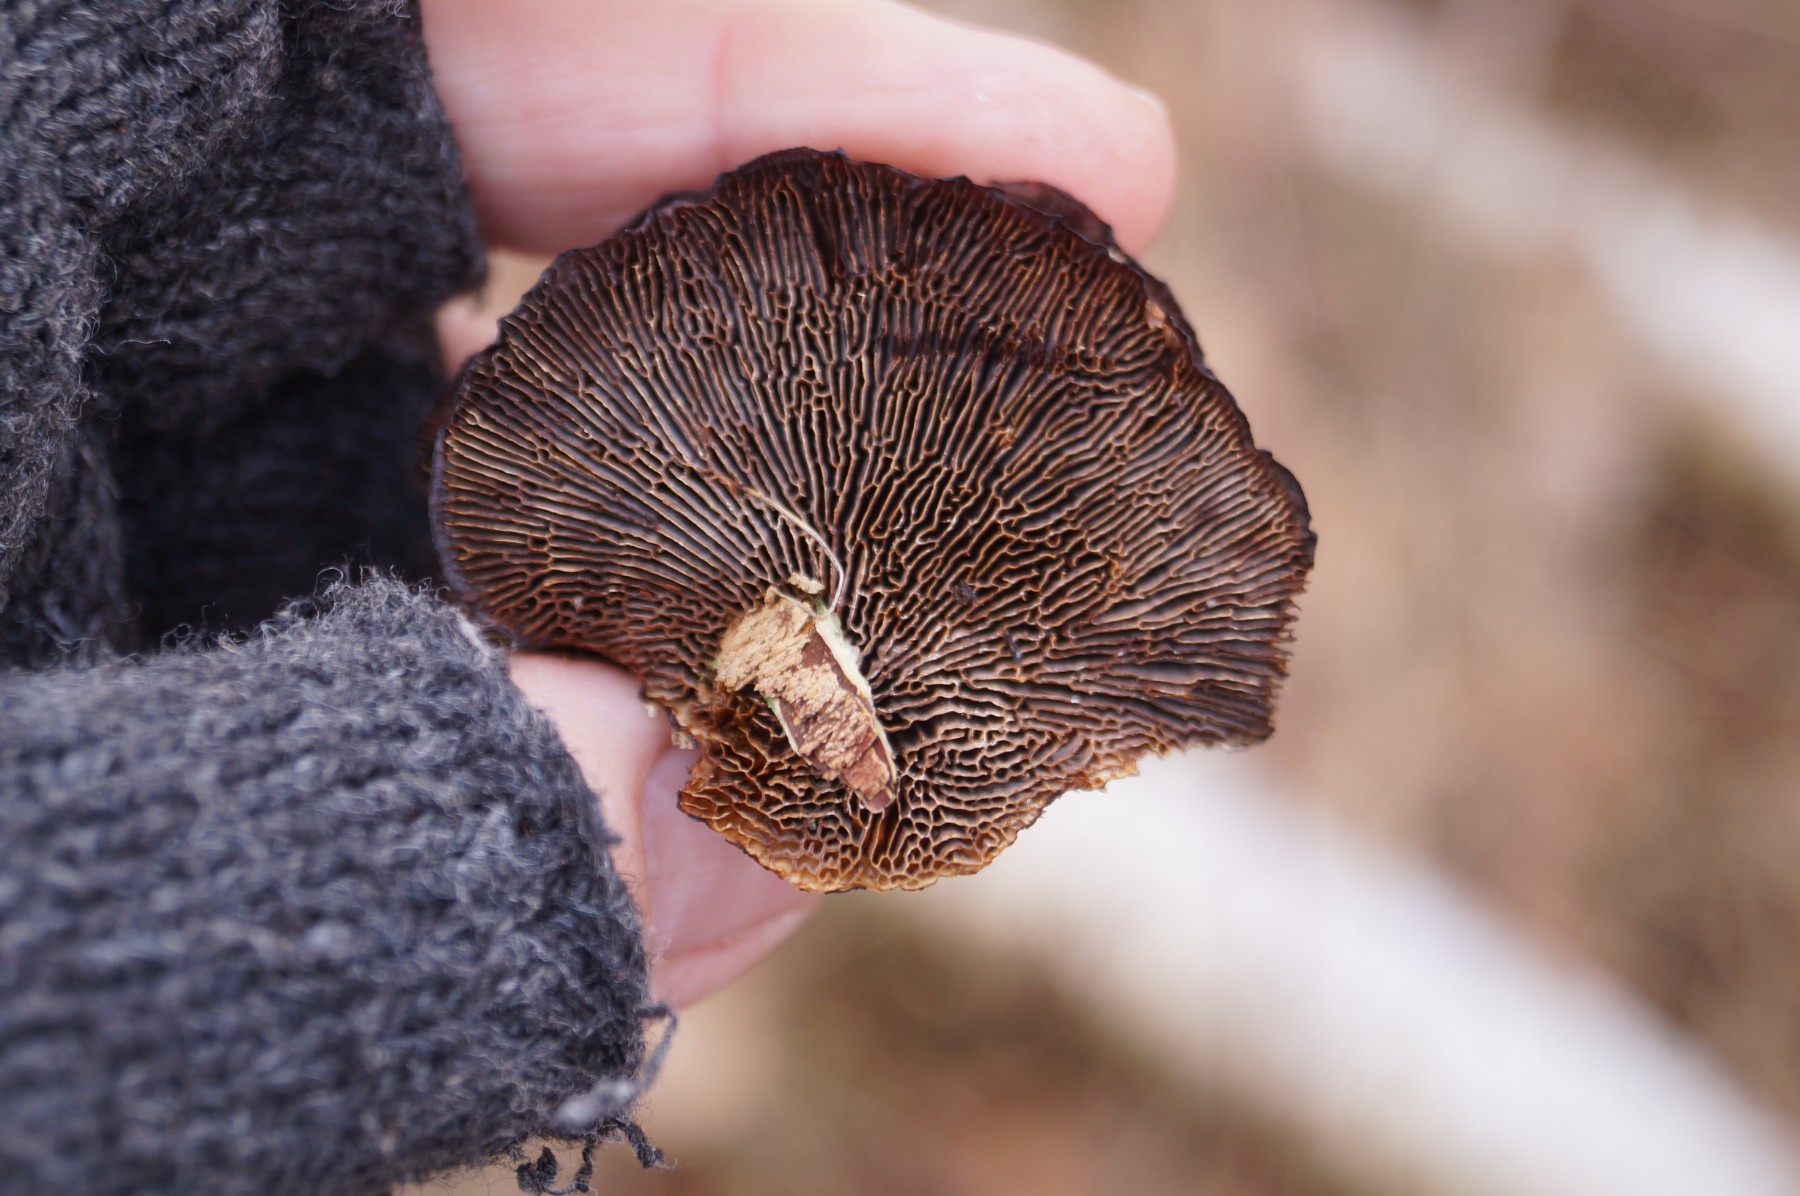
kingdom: Fungi
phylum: Basidiomycota
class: Agaricomycetes
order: Polyporales
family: Polyporaceae
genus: Daedaleopsis
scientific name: Daedaleopsis confragosa
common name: rødmende læderporesvamp
